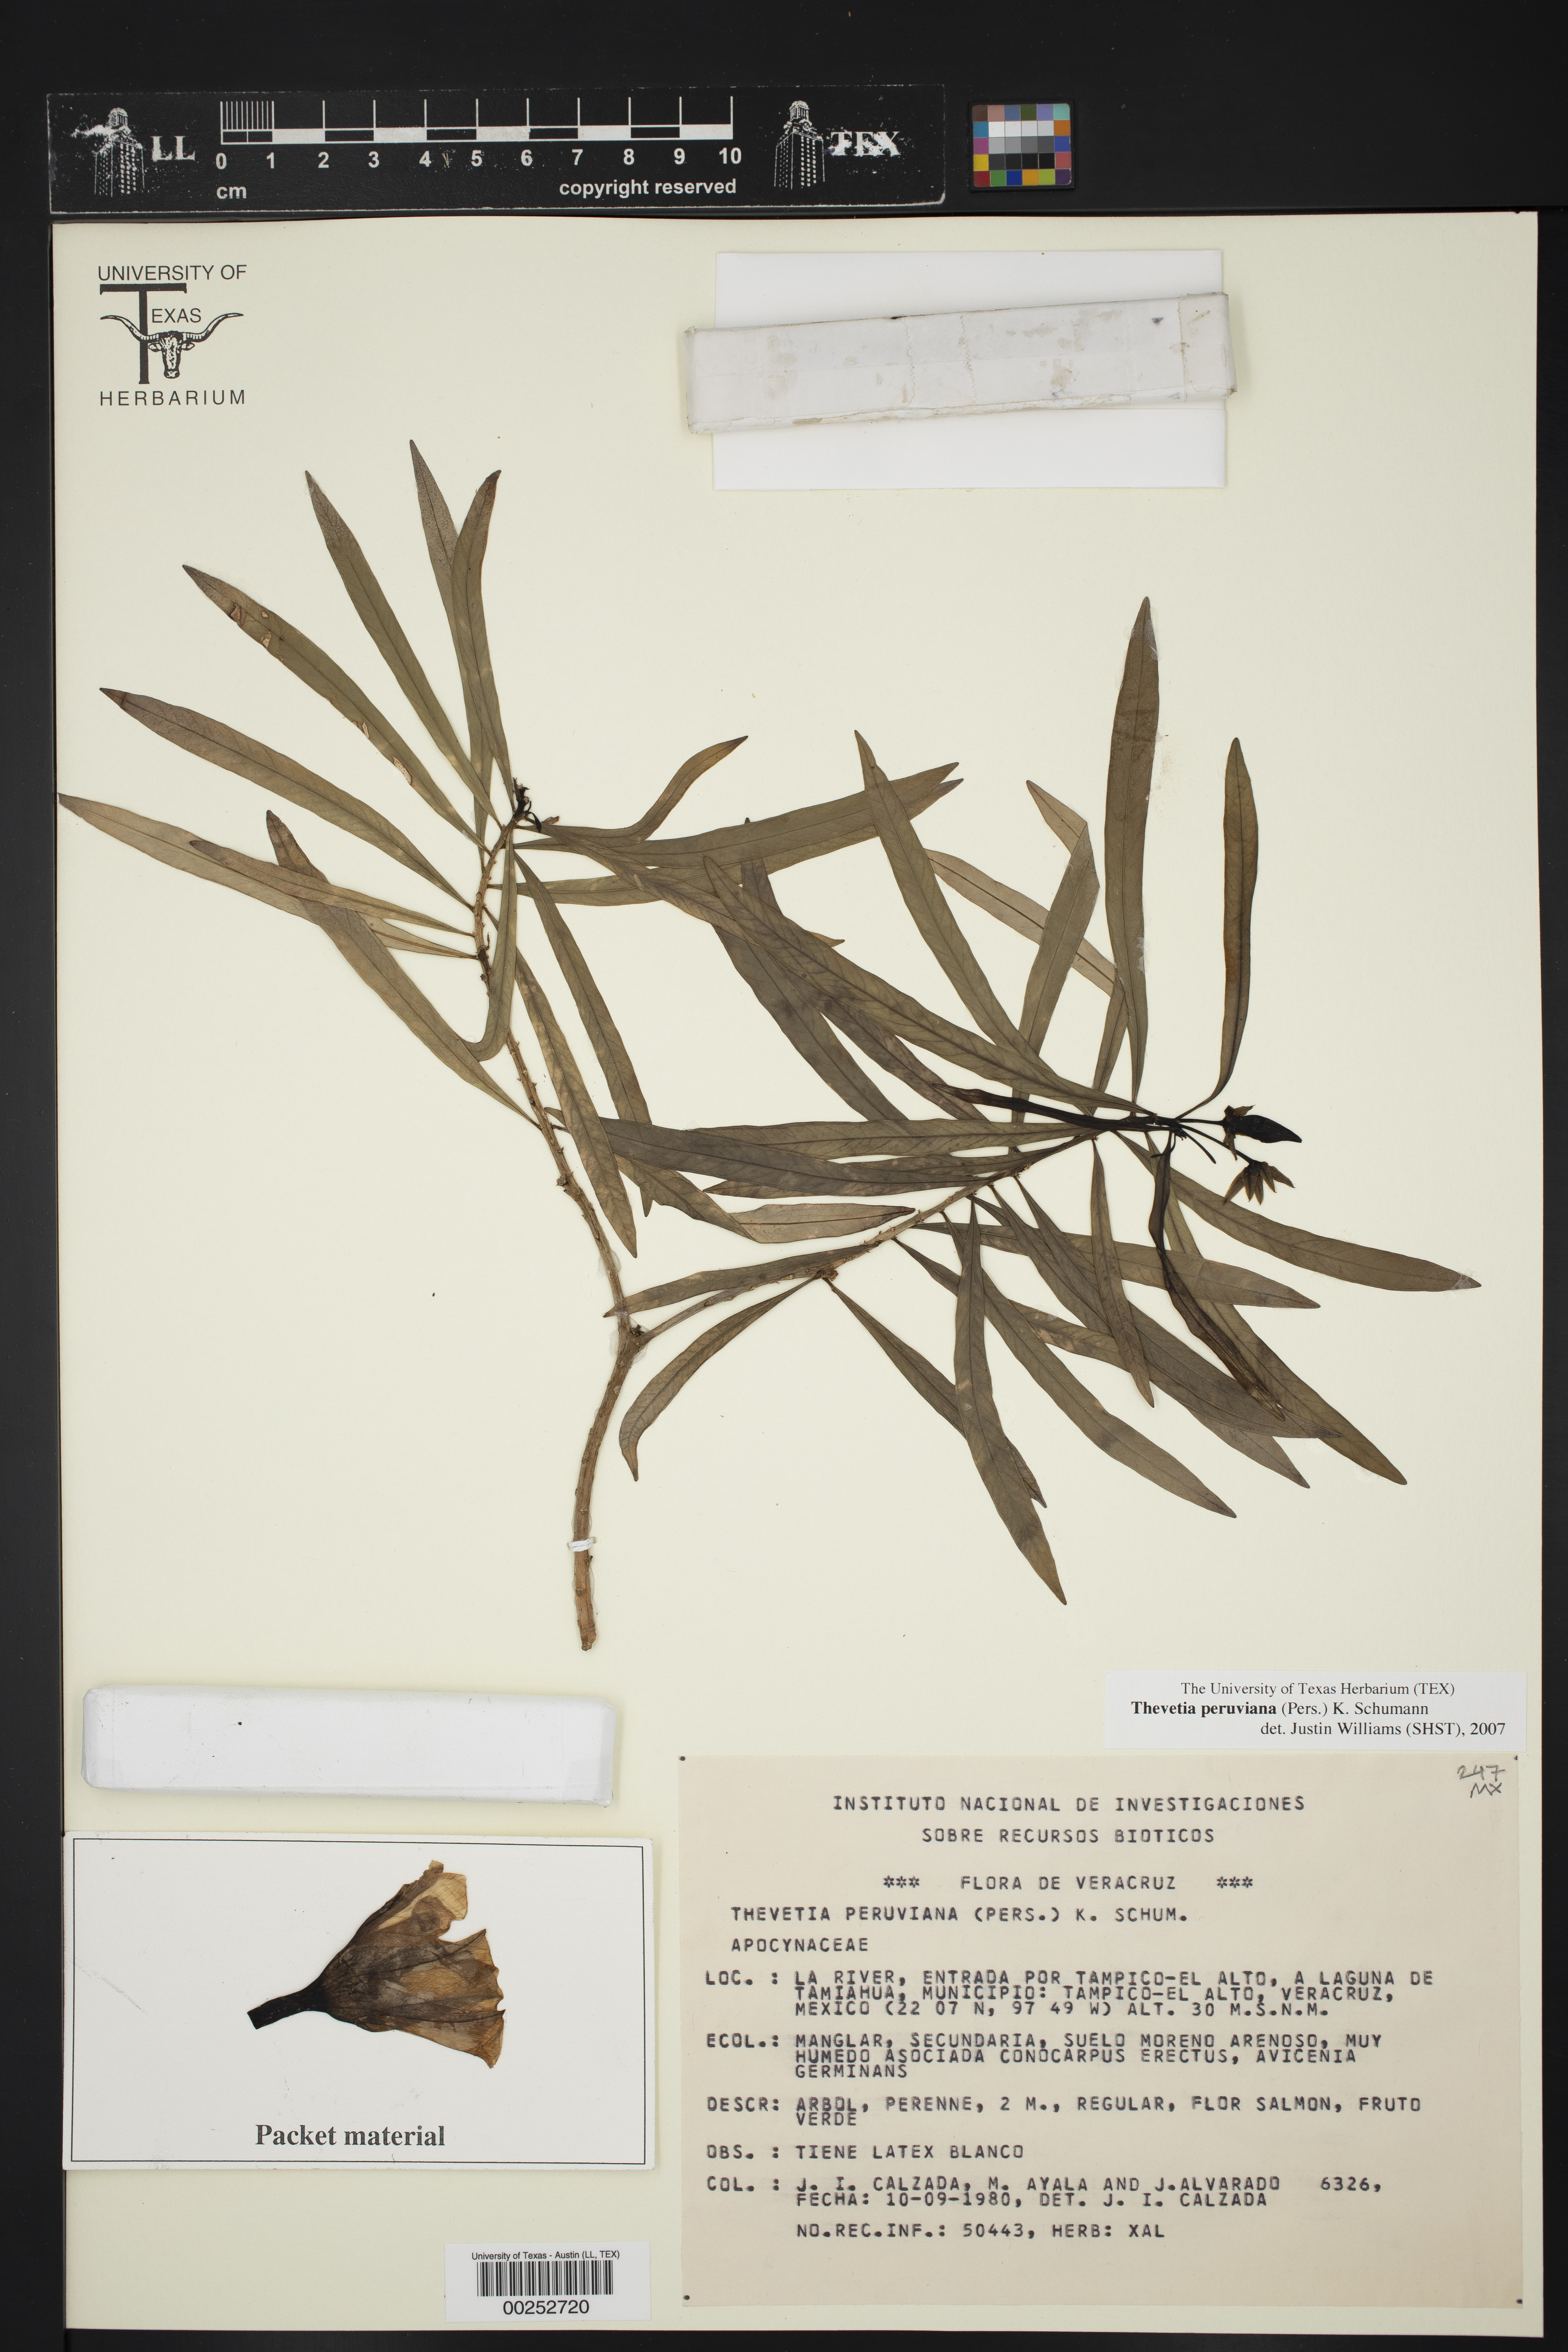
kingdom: Plantae
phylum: Tracheophyta
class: Magnoliopsida
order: Gentianales
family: Apocynaceae
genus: Cascabela
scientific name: Cascabela thevetia
